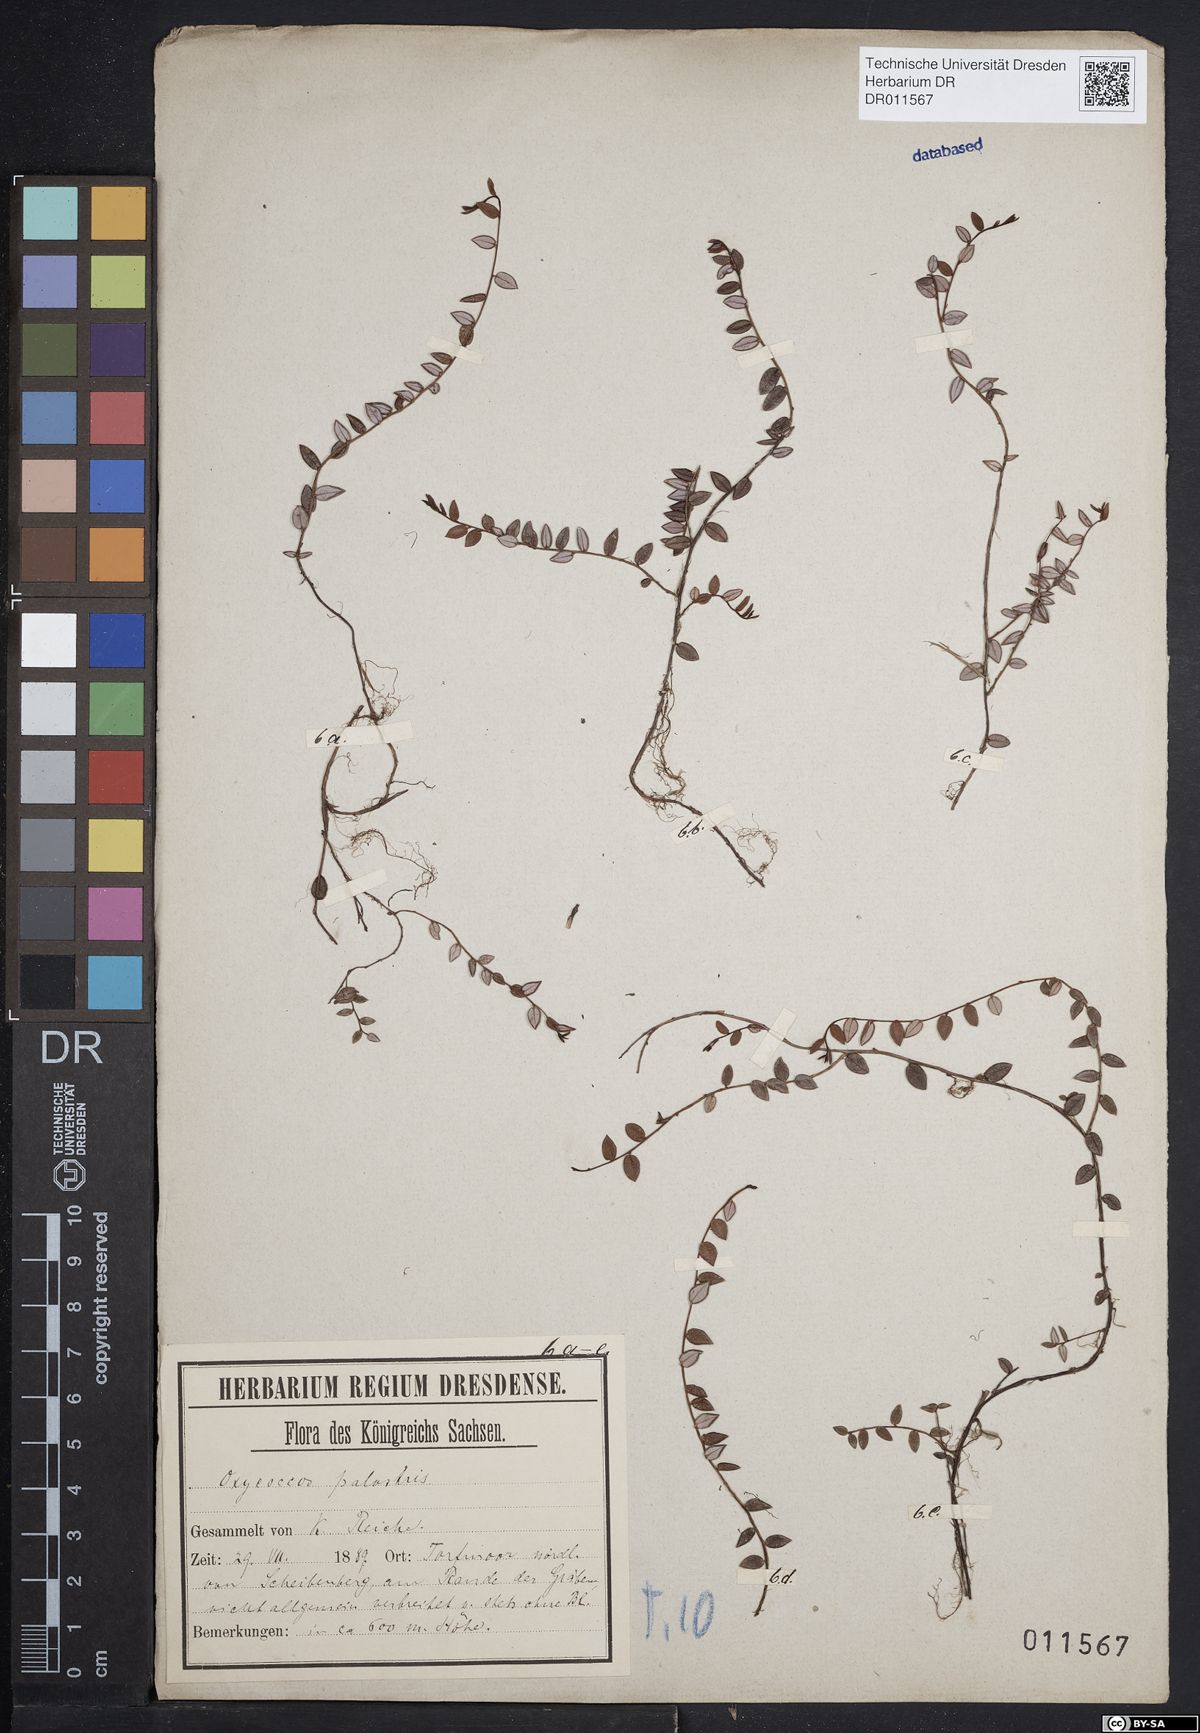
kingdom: Plantae
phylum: Tracheophyta
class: Magnoliopsida
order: Ericales
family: Ericaceae
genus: Vaccinium
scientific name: Vaccinium oxycoccos
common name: Cranberry
